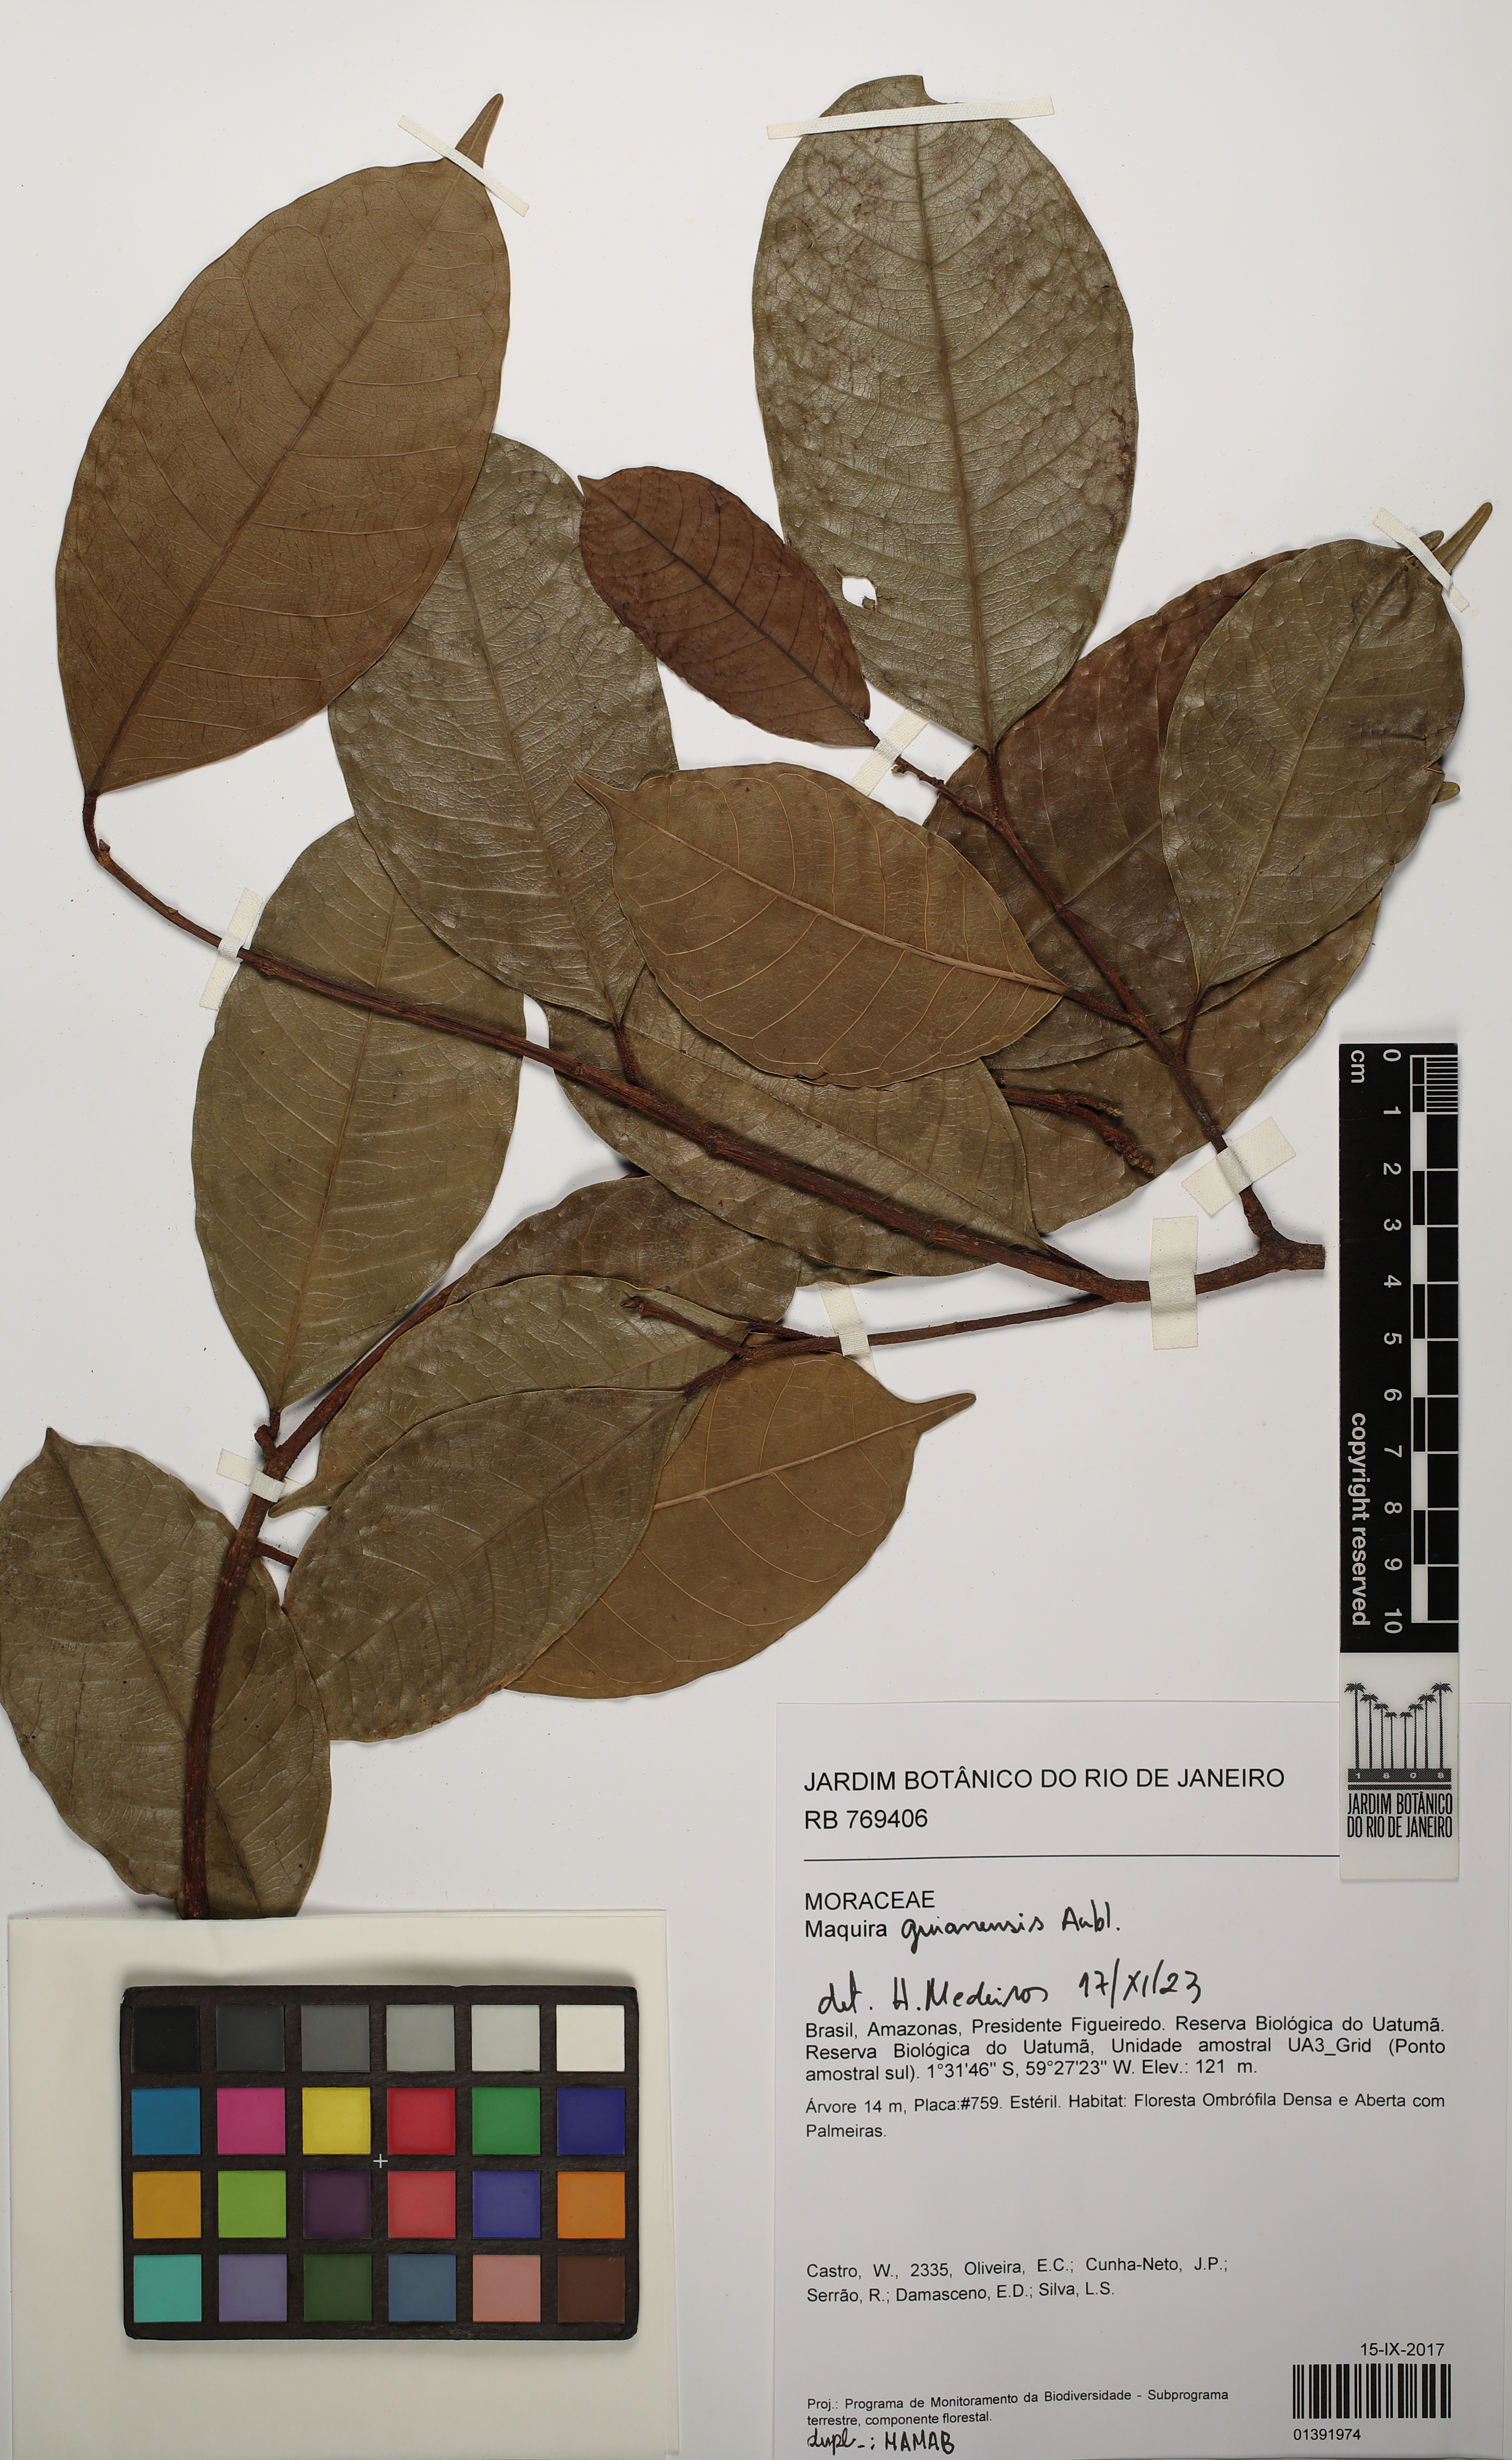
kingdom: Plantae
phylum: Tracheophyta
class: Magnoliopsida
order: Rosales
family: Moraceae
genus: Maquira
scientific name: Maquira guianensis
